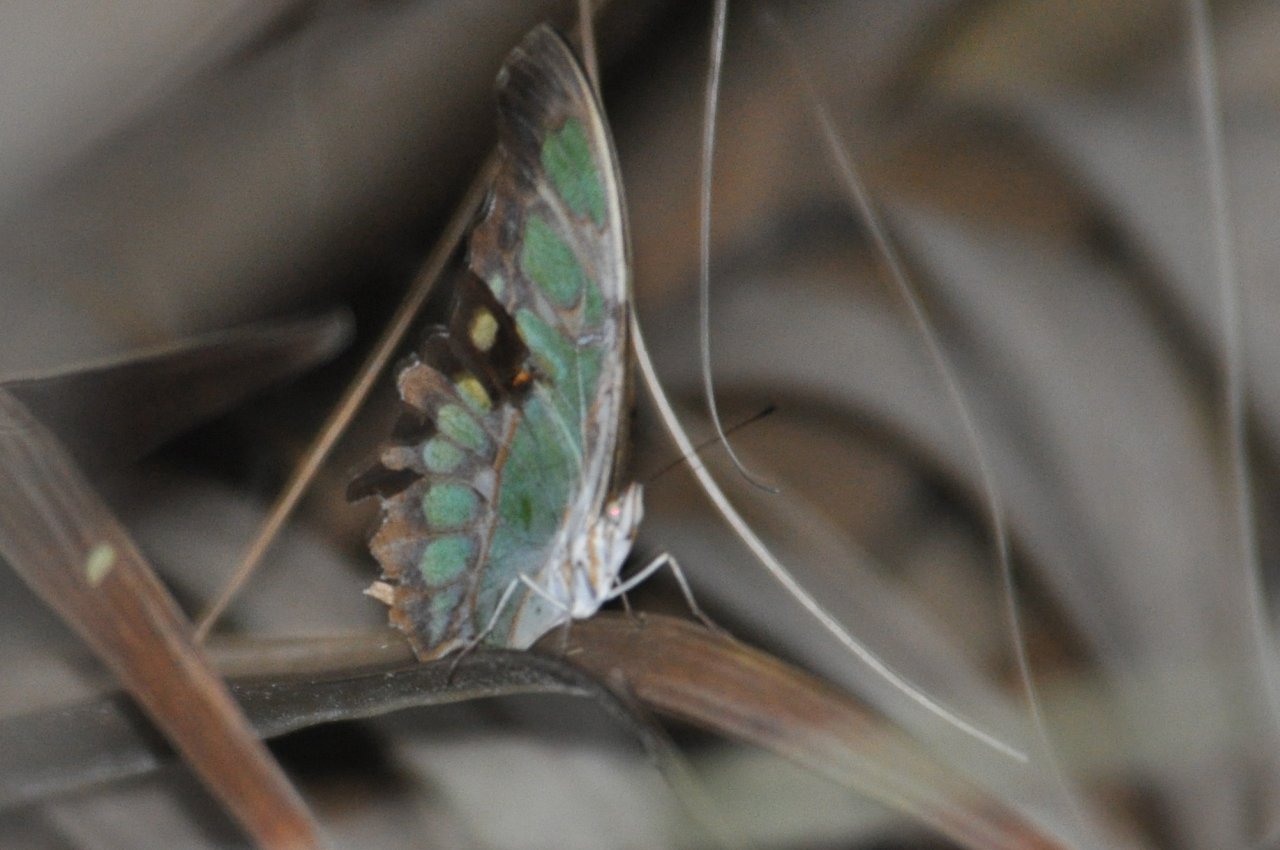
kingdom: Animalia
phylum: Arthropoda
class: Insecta
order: Lepidoptera
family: Nymphalidae
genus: Siproeta
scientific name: Siproeta stelenes
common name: Malachite
